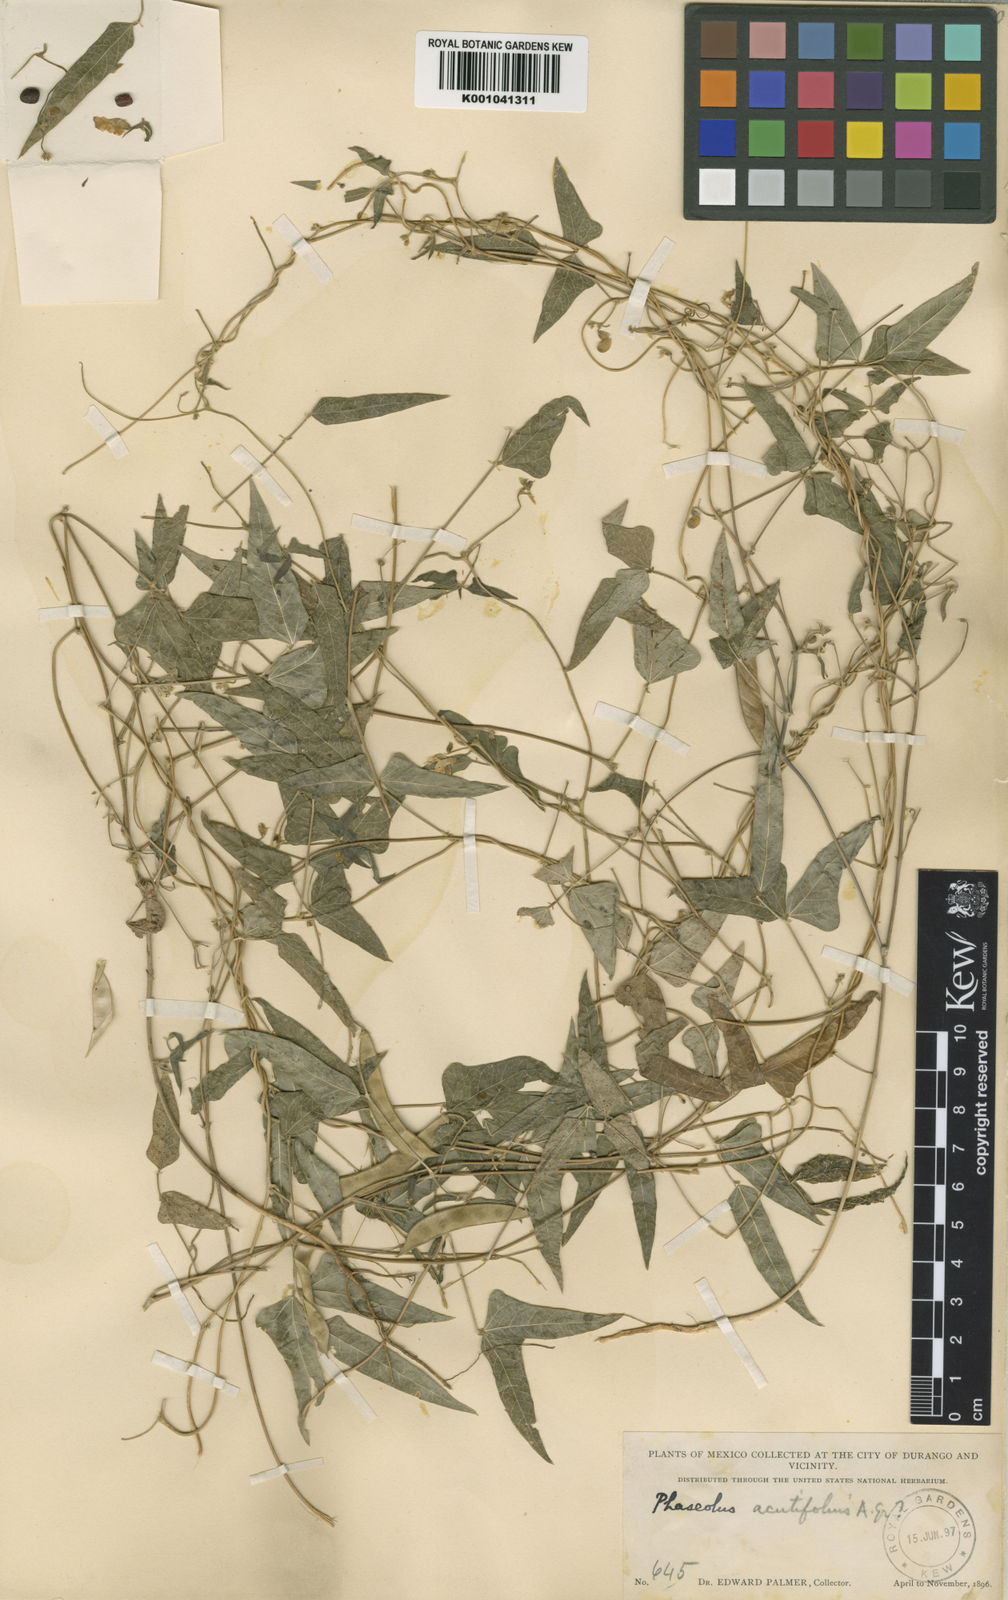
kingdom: Plantae
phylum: Tracheophyta
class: Magnoliopsida
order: Fabales
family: Fabaceae
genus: Phaseolus
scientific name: Phaseolus acutifolius
